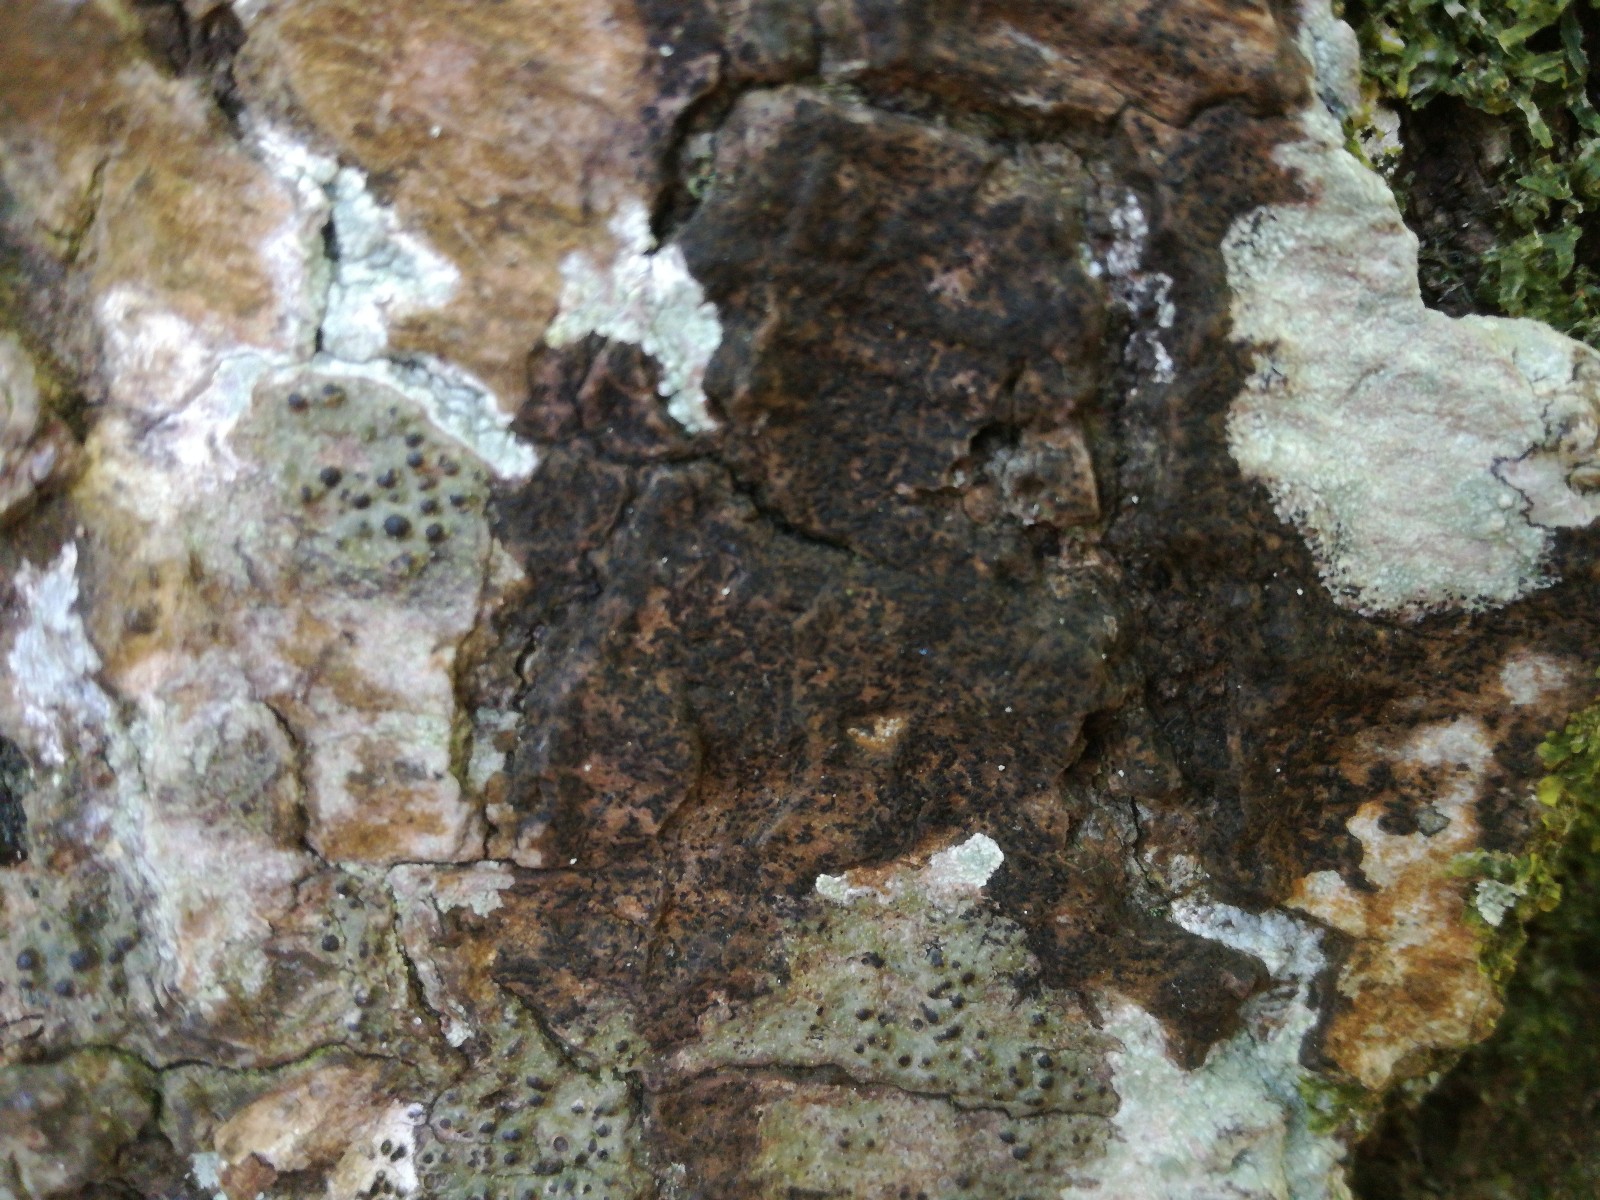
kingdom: Fungi
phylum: Ascomycota
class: Lecanoromycetes
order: Ostropales
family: Graphidaceae
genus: Opegrapha
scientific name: Opegrapha vulgata
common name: oliven-bogstavlav
